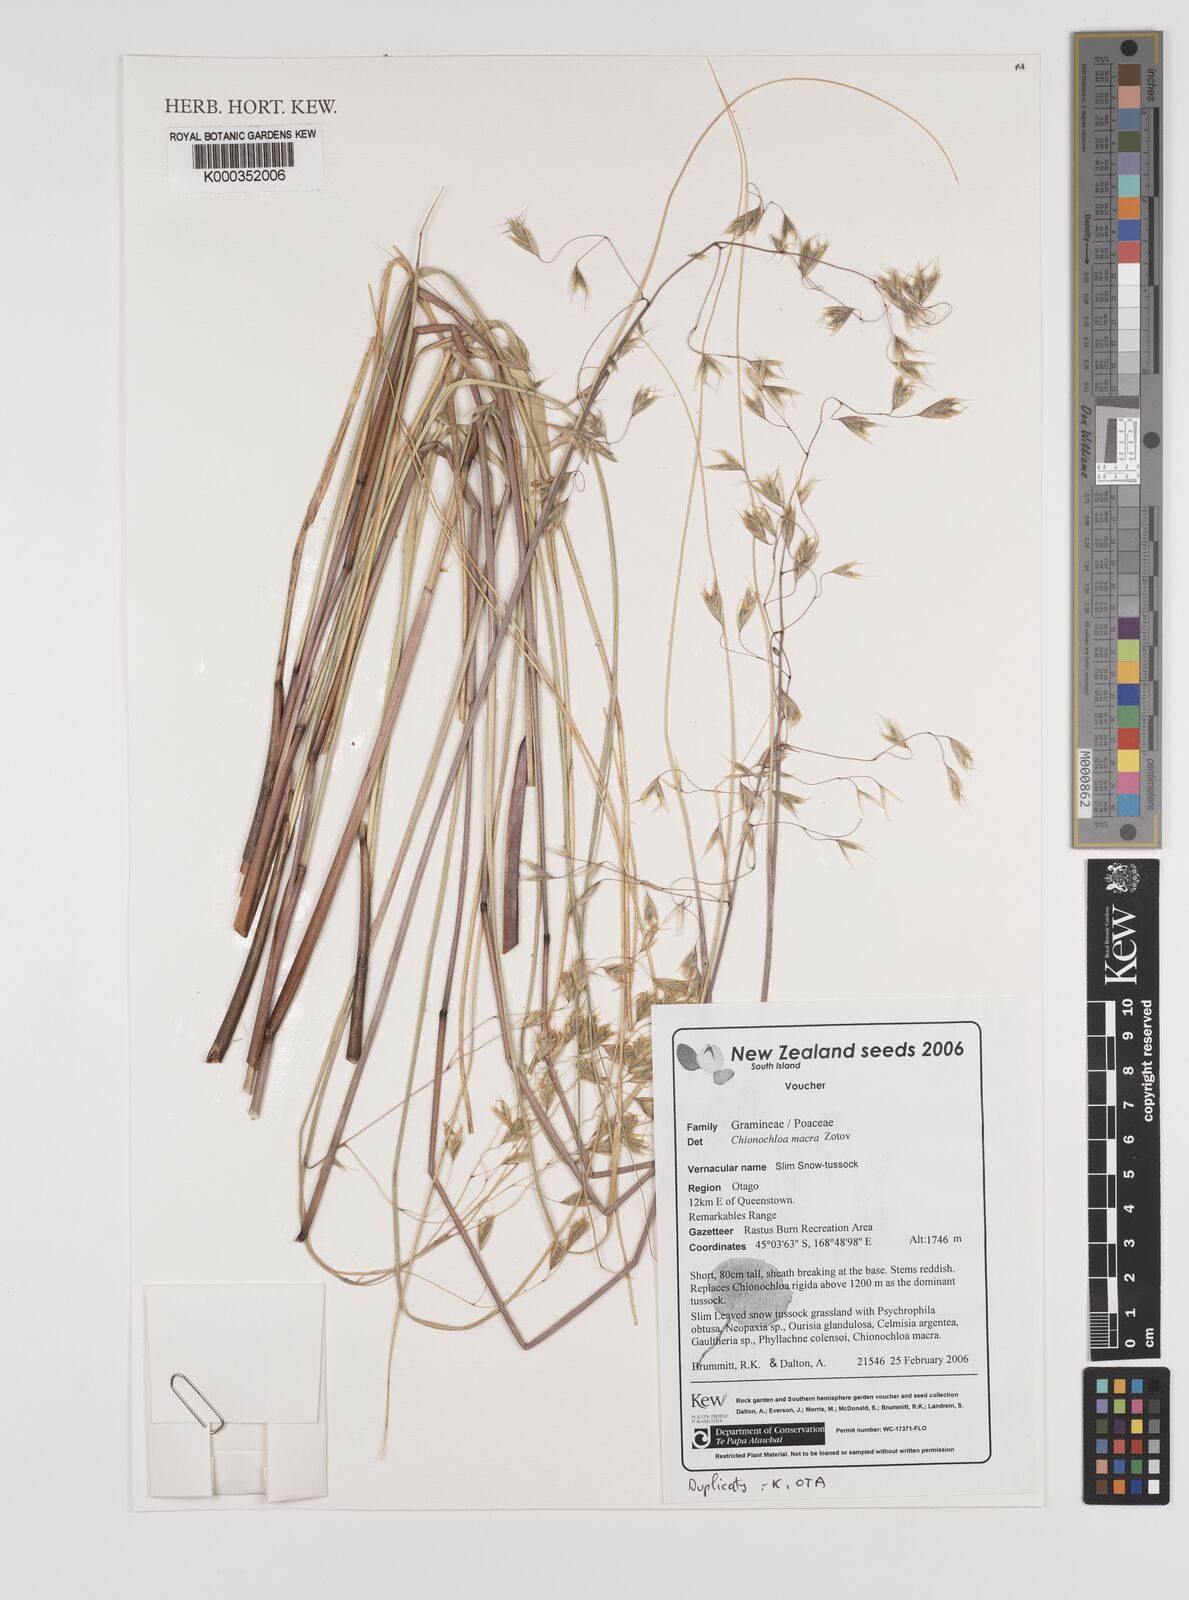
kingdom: Plantae
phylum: Tracheophyta
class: Liliopsida
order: Poales
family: Poaceae
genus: Chionochloa
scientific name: Chionochloa macra
